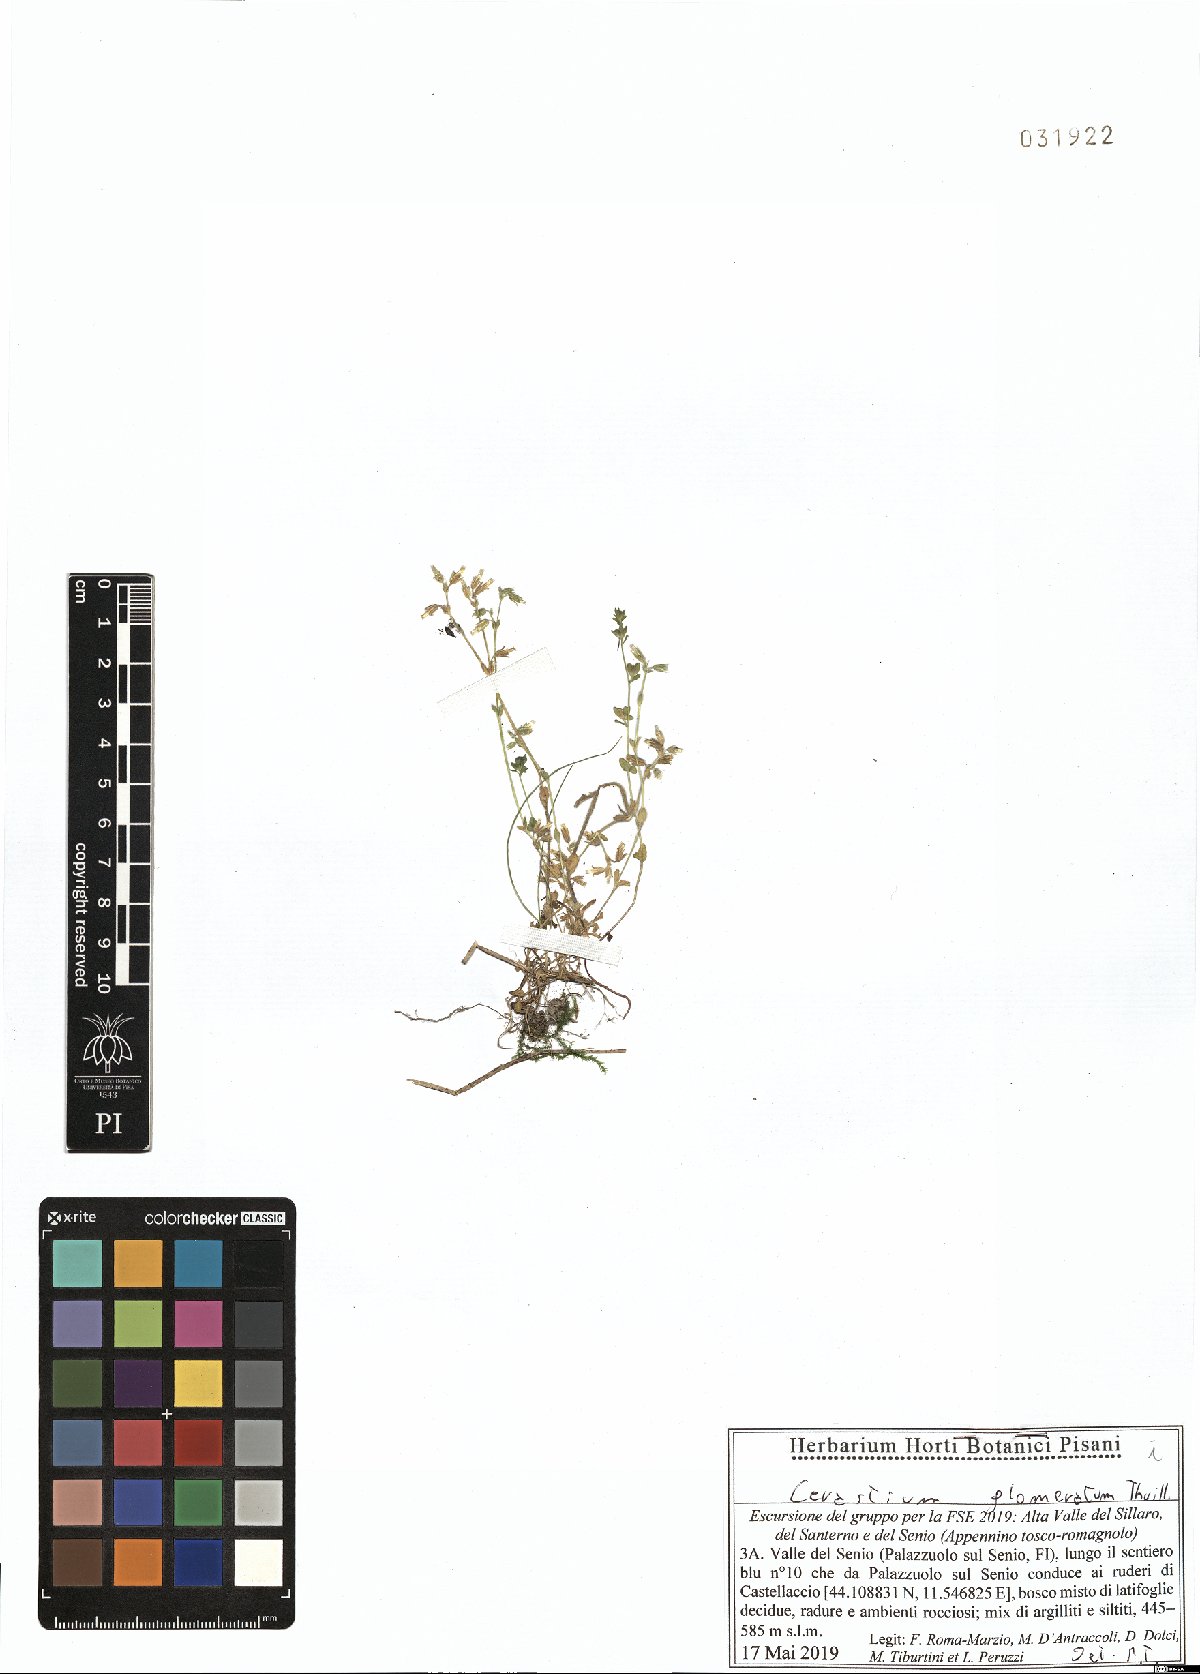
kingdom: Plantae
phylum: Tracheophyta
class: Magnoliopsida
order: Caryophyllales
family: Caryophyllaceae
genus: Cerastium
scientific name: Cerastium glomeratum
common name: Sticky chickweed
